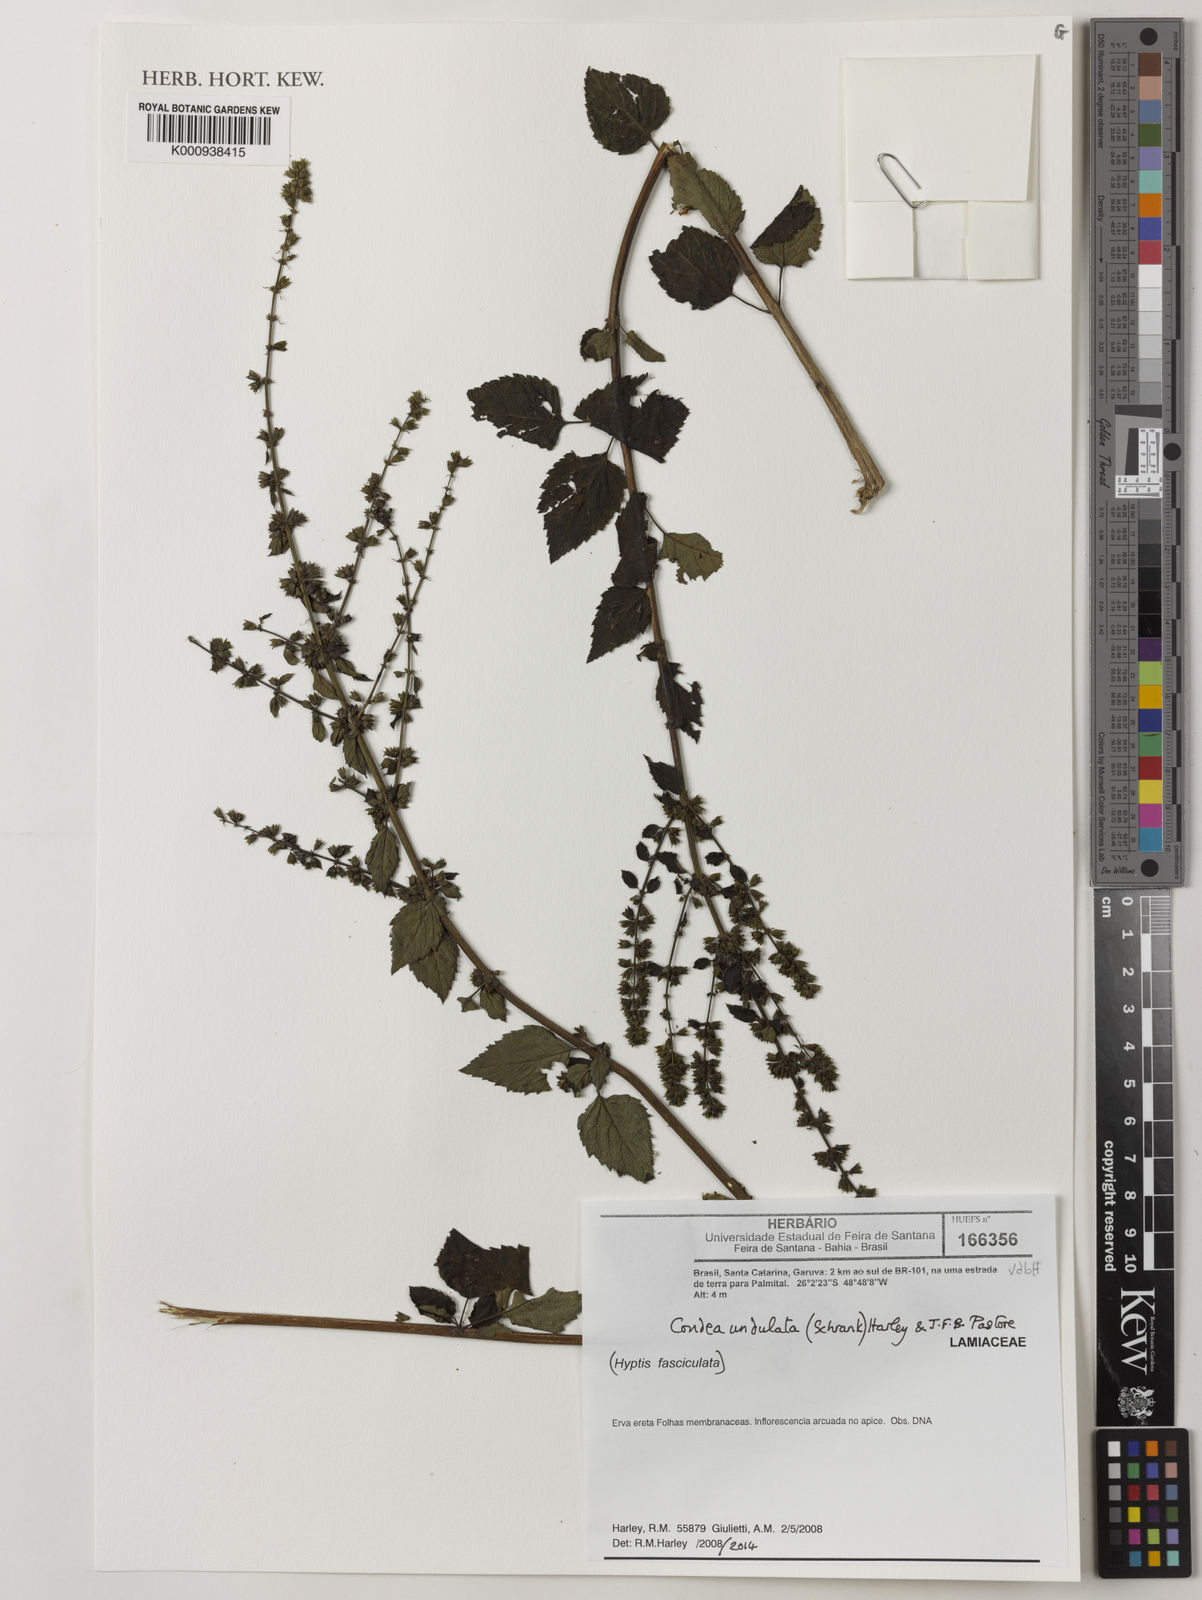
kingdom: Plantae
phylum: Tracheophyta
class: Magnoliopsida
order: Lamiales
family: Lamiaceae
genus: Cantinoa
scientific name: Cantinoa
